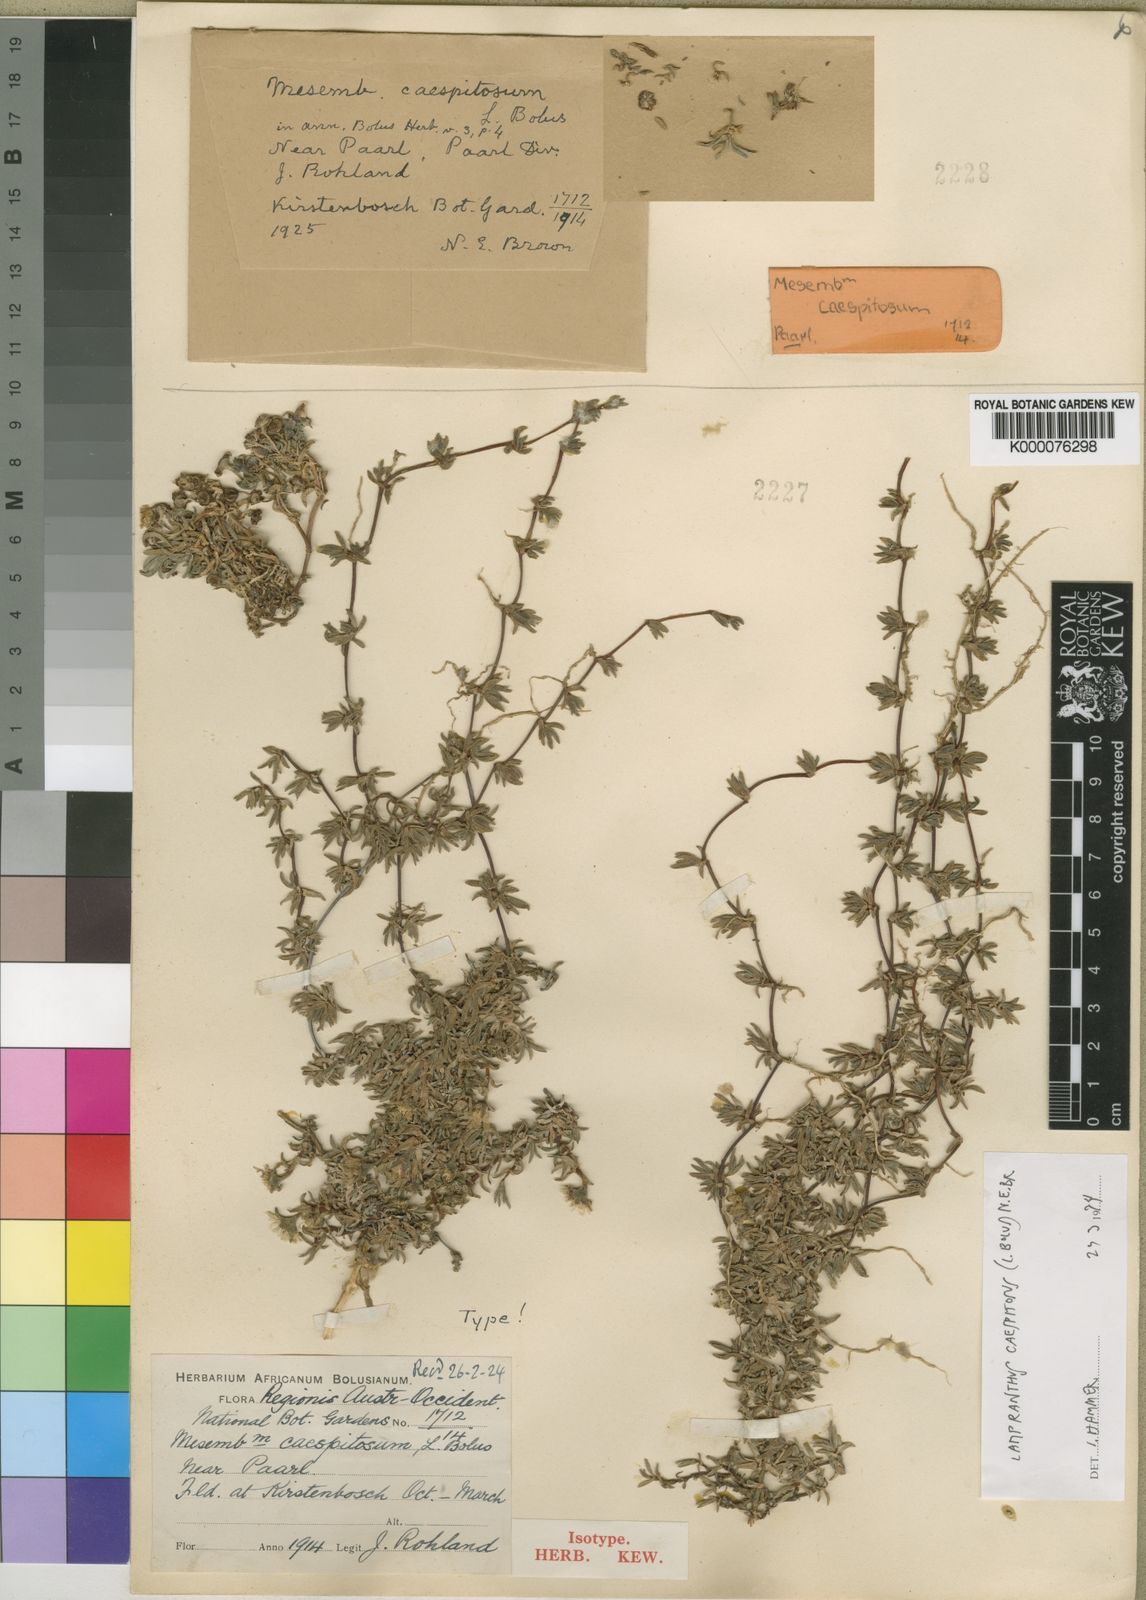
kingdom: Plantae
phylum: Tracheophyta
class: Magnoliopsida
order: Caryophyllales
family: Aizoaceae
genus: Lampranthus
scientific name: Lampranthus caespitosus
